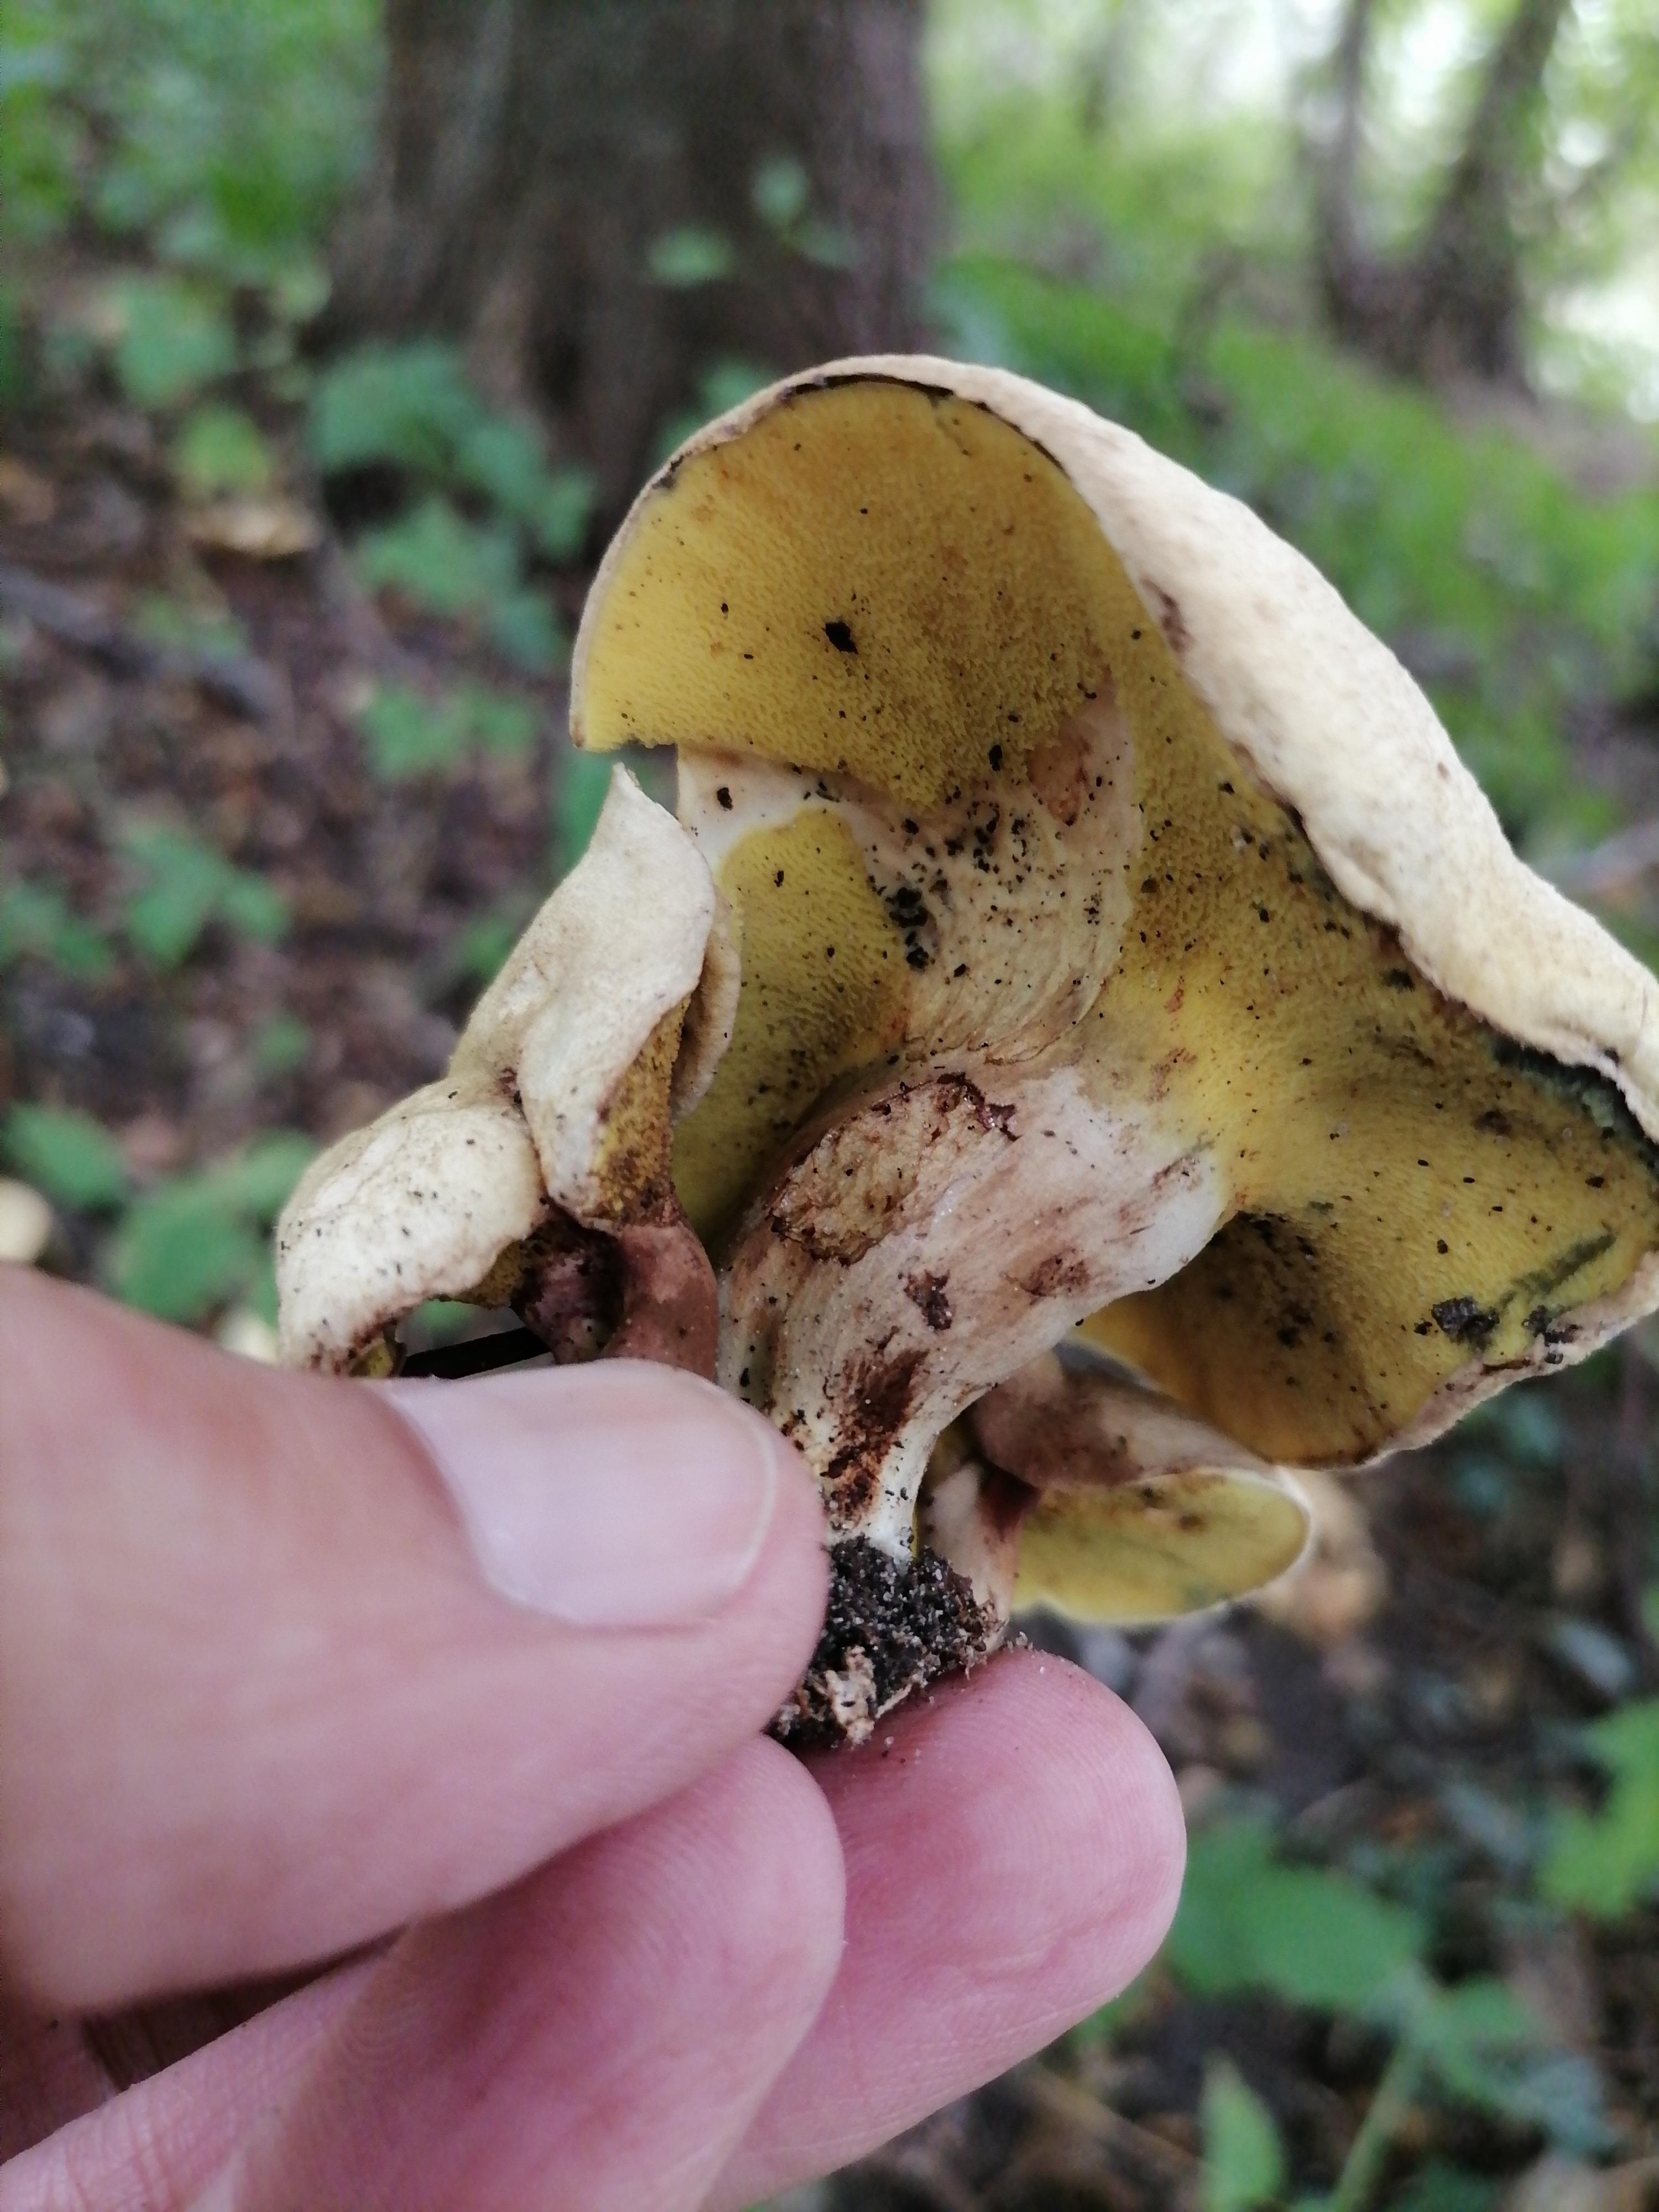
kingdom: Fungi
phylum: Basidiomycota
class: Agaricomycetes
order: Boletales
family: Paxillaceae
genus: Gyrodon
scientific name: Gyrodon lividus
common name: ellerørhat
